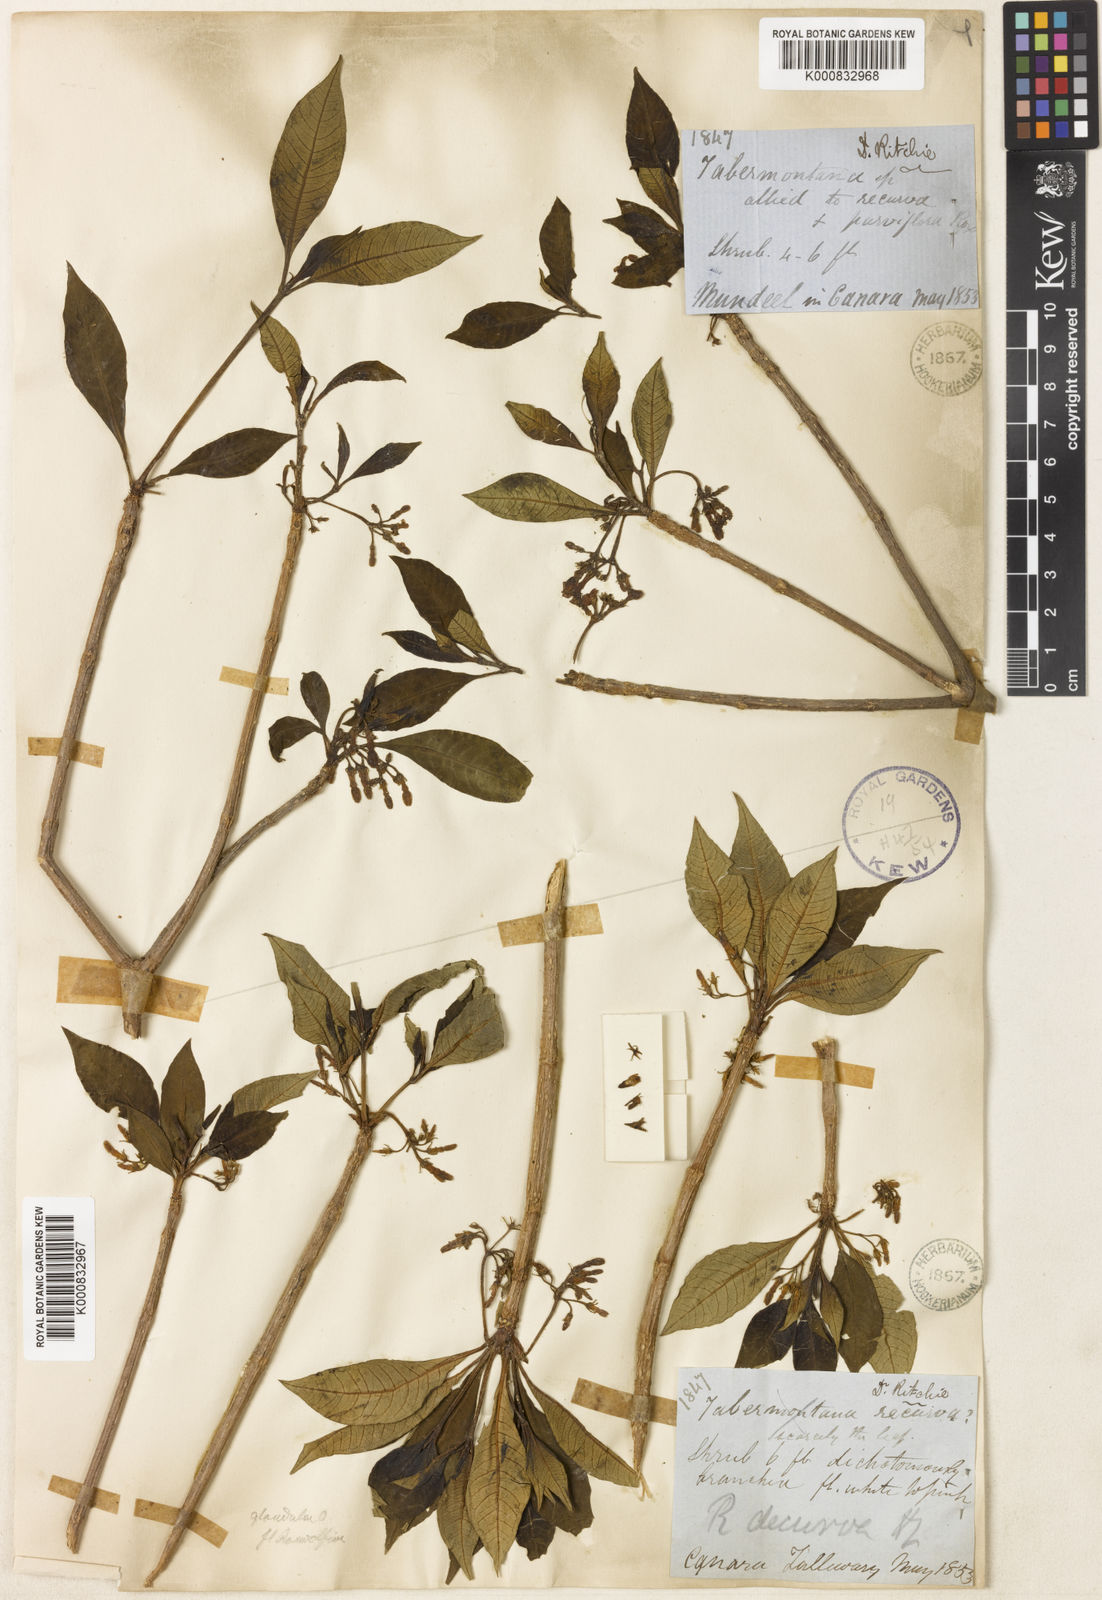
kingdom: Plantae
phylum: Tracheophyta
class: Magnoliopsida
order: Gentianales
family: Apocynaceae
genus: Rauvolfia
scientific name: Rauvolfia verticillata
